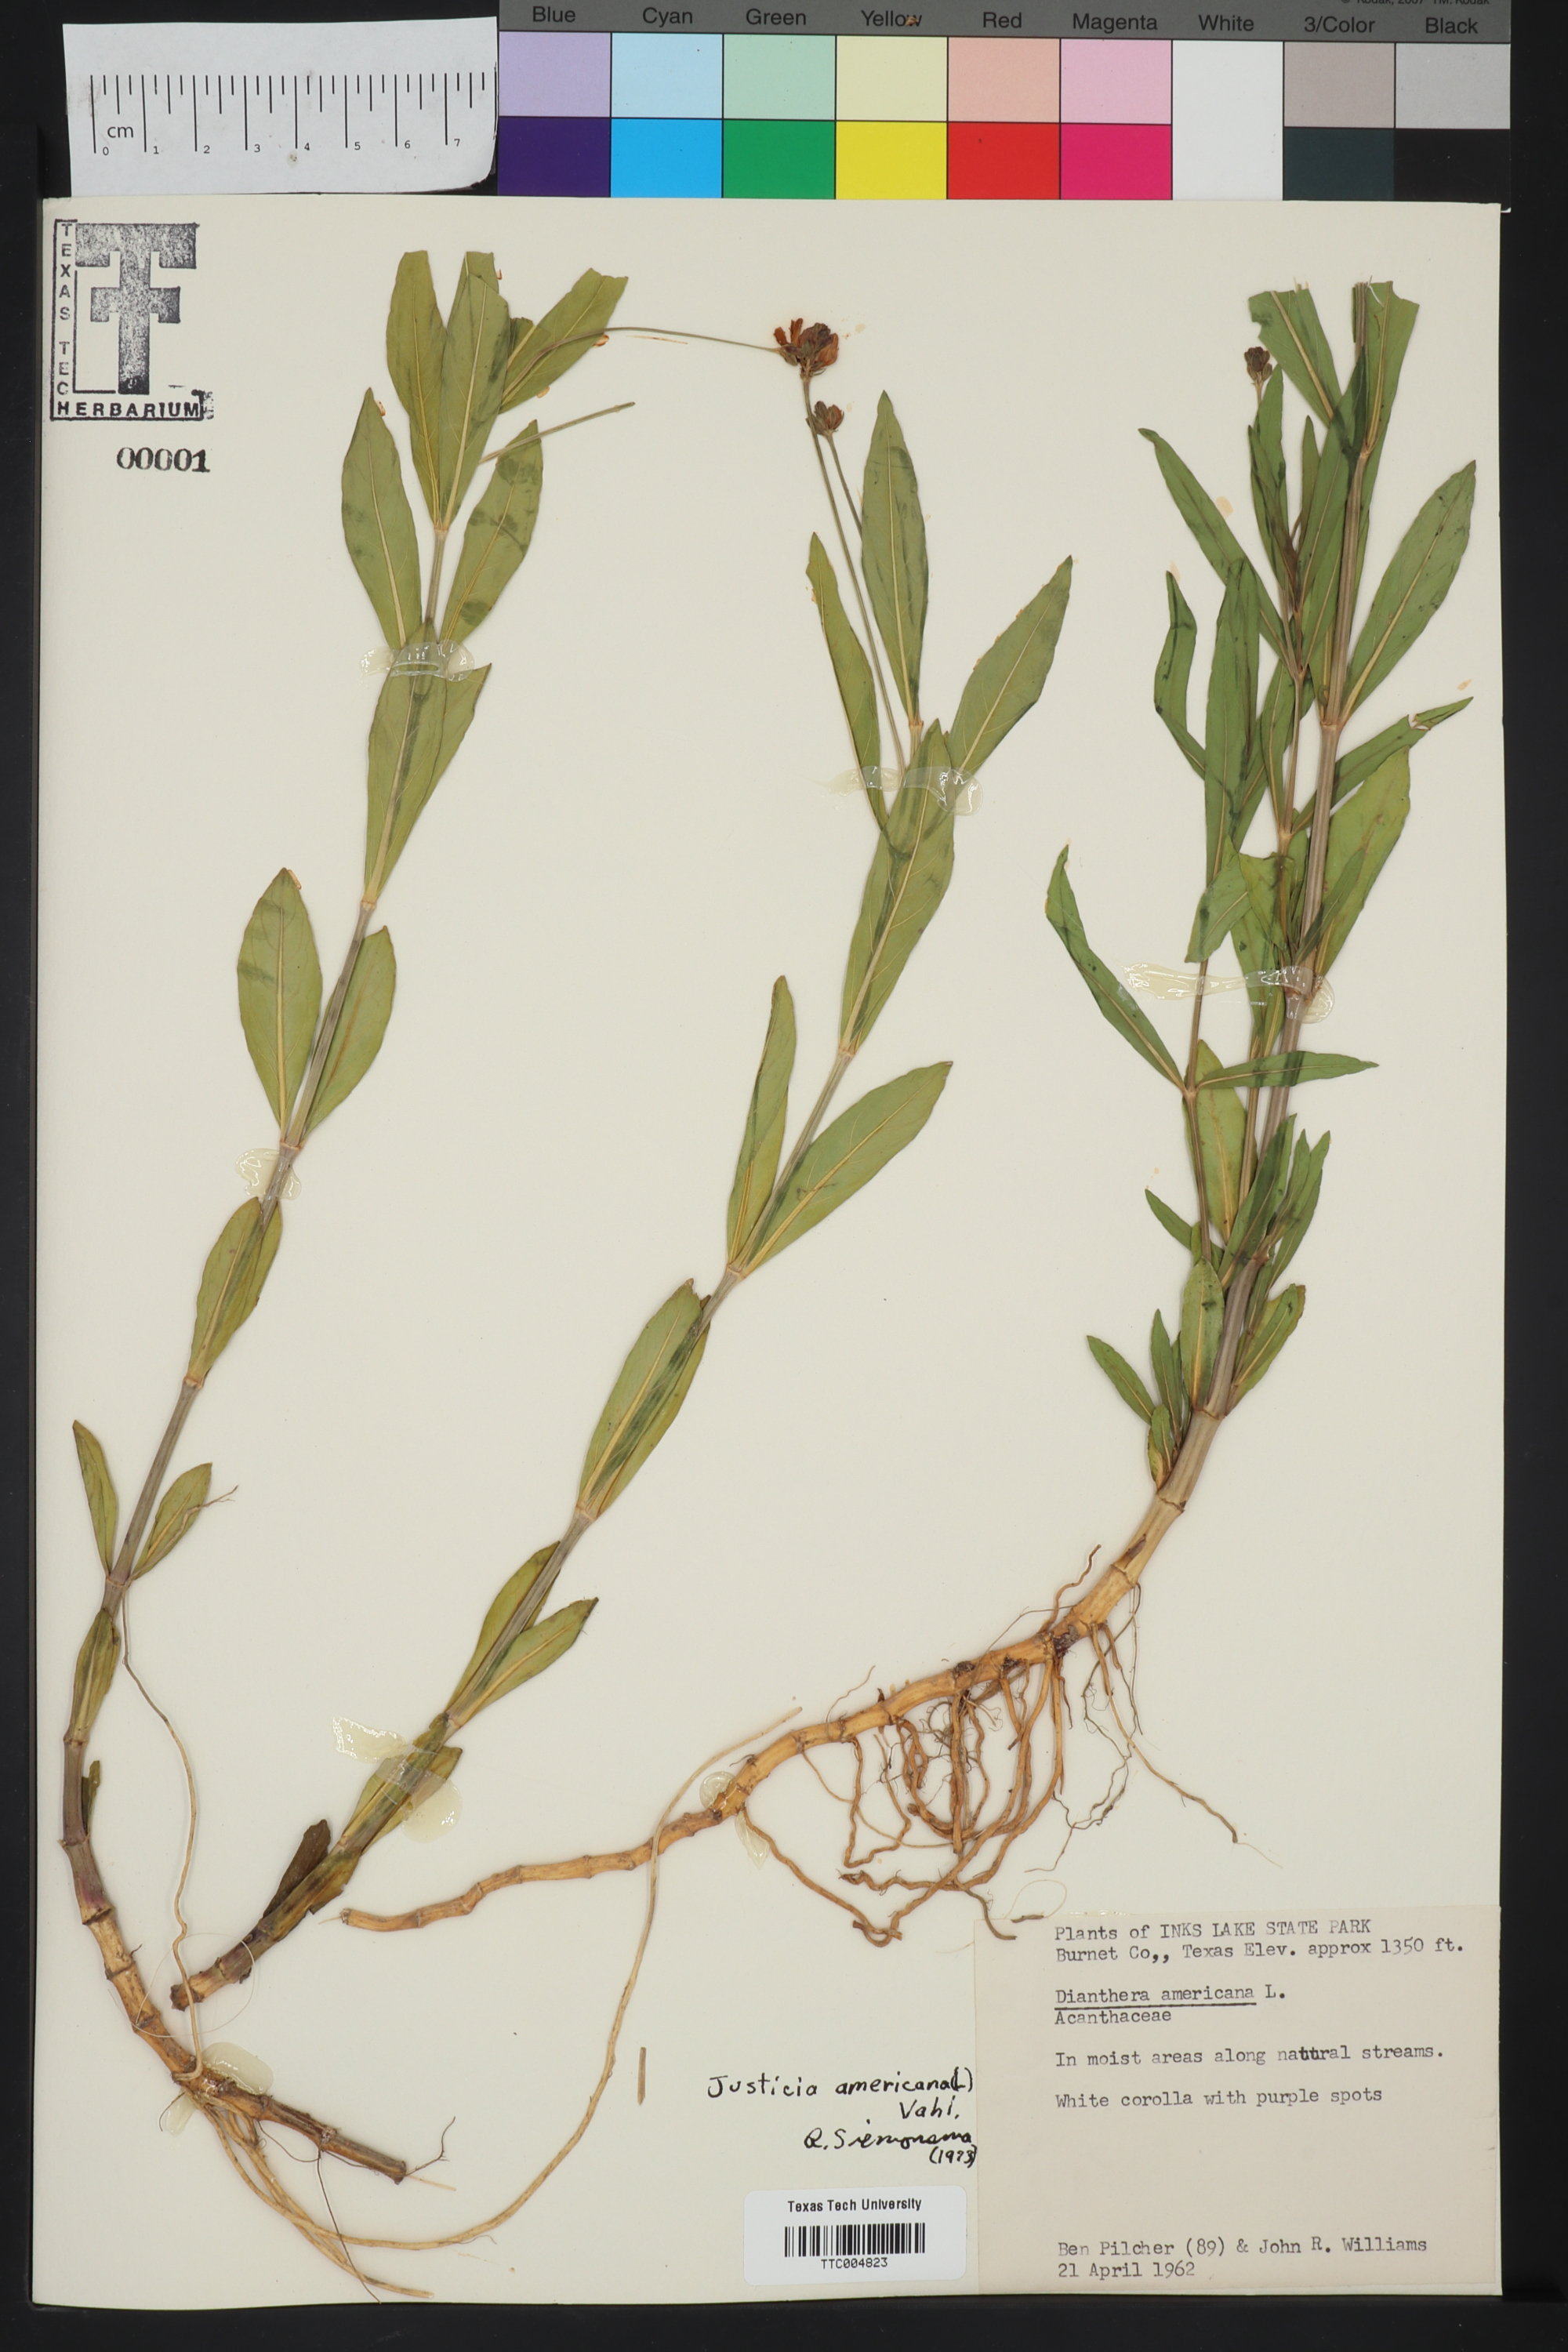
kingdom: Plantae
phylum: Tracheophyta
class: Magnoliopsida
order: Lamiales
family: Acanthaceae
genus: Dianthera
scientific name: Dianthera americana
